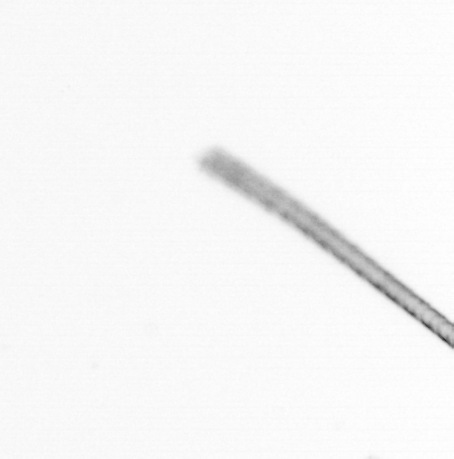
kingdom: Chromista
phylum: Ochrophyta
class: Bacillariophyceae
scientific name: Bacillariophyceae
